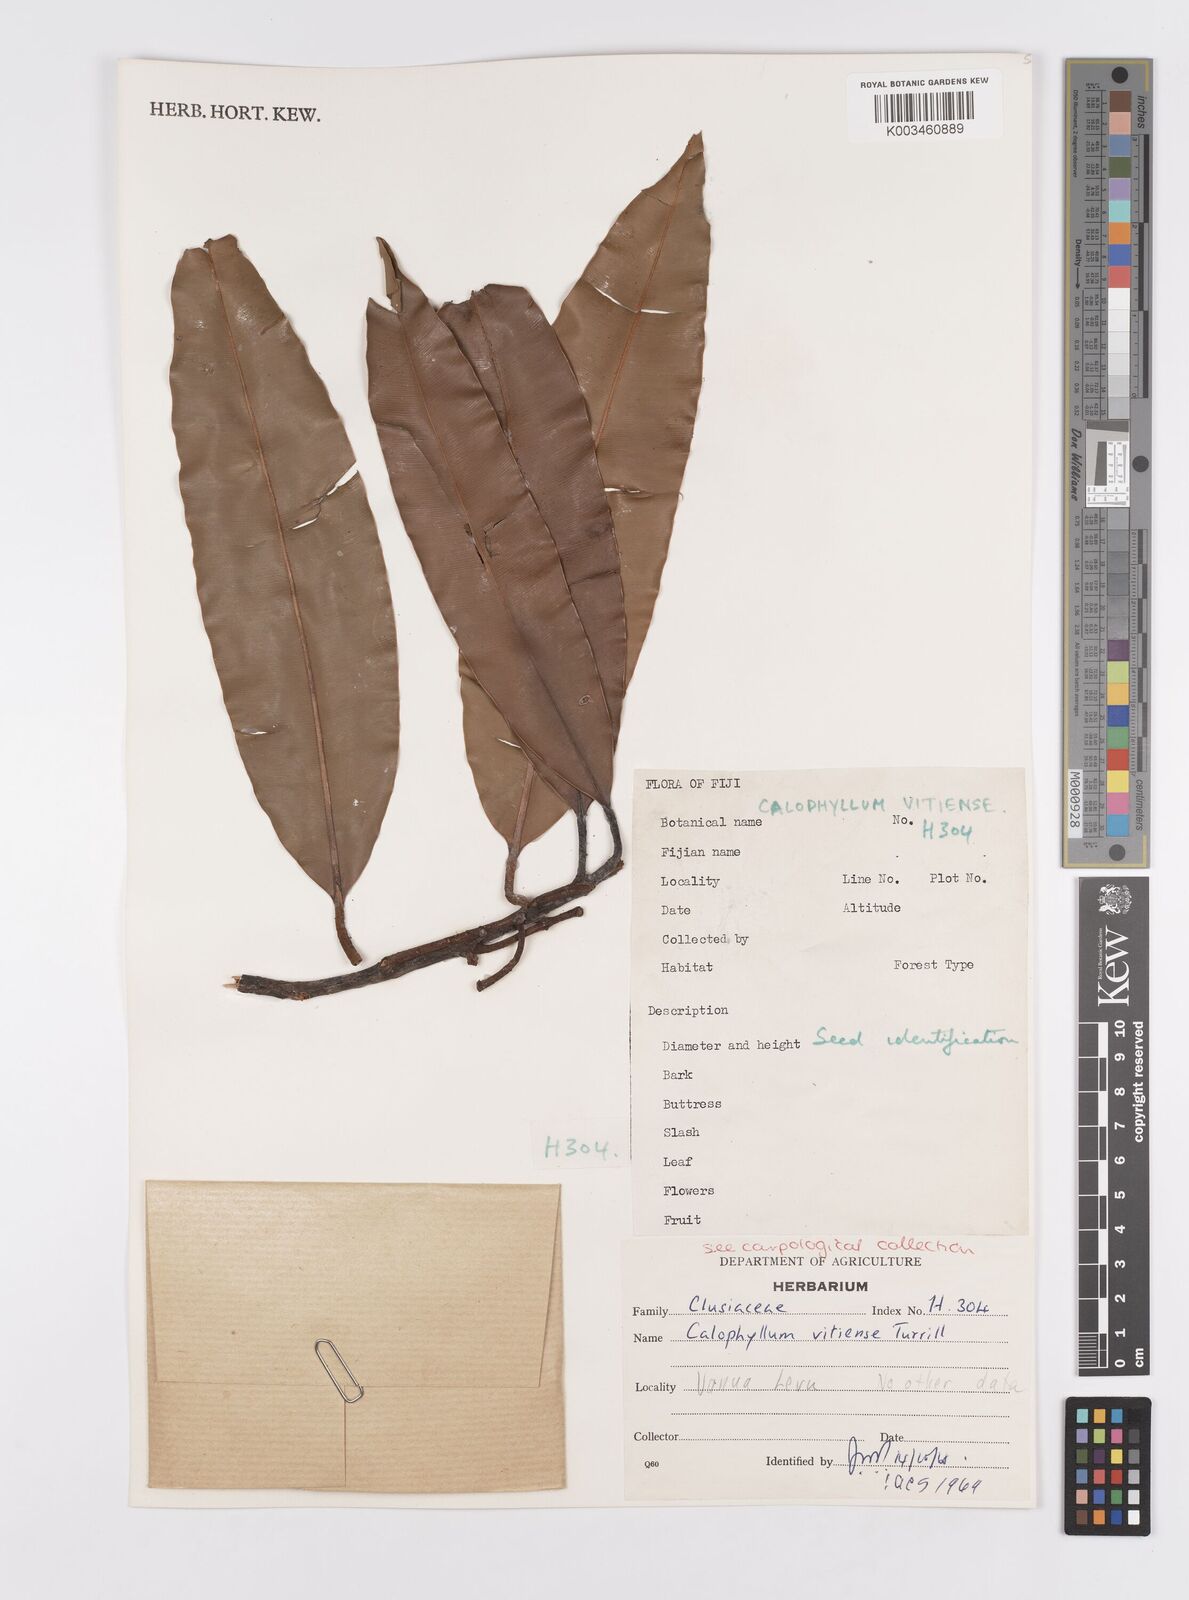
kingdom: Plantae
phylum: Tracheophyta
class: Magnoliopsida
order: Malpighiales
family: Calophyllaceae
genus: Calophyllum
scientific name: Calophyllum vitiense
